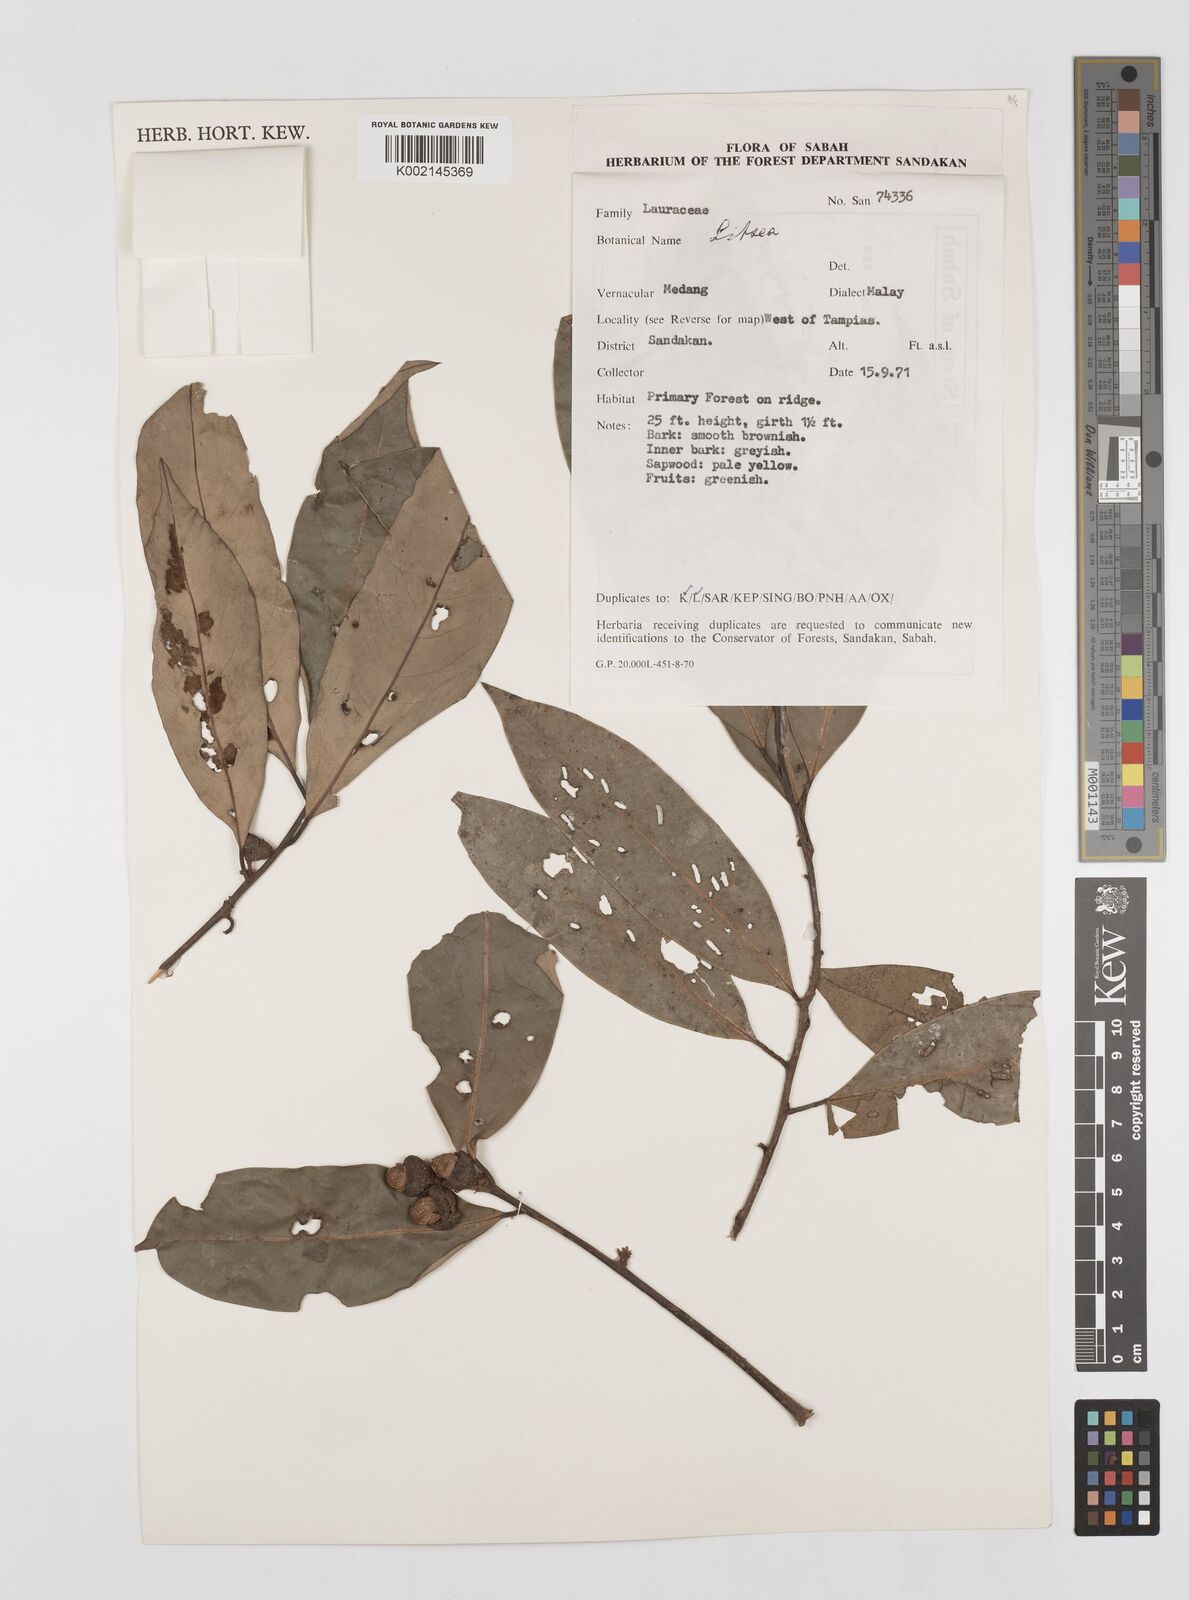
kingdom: Plantae
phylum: Tracheophyta
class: Magnoliopsida
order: Laurales
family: Lauraceae
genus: Litsea
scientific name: Litsea
